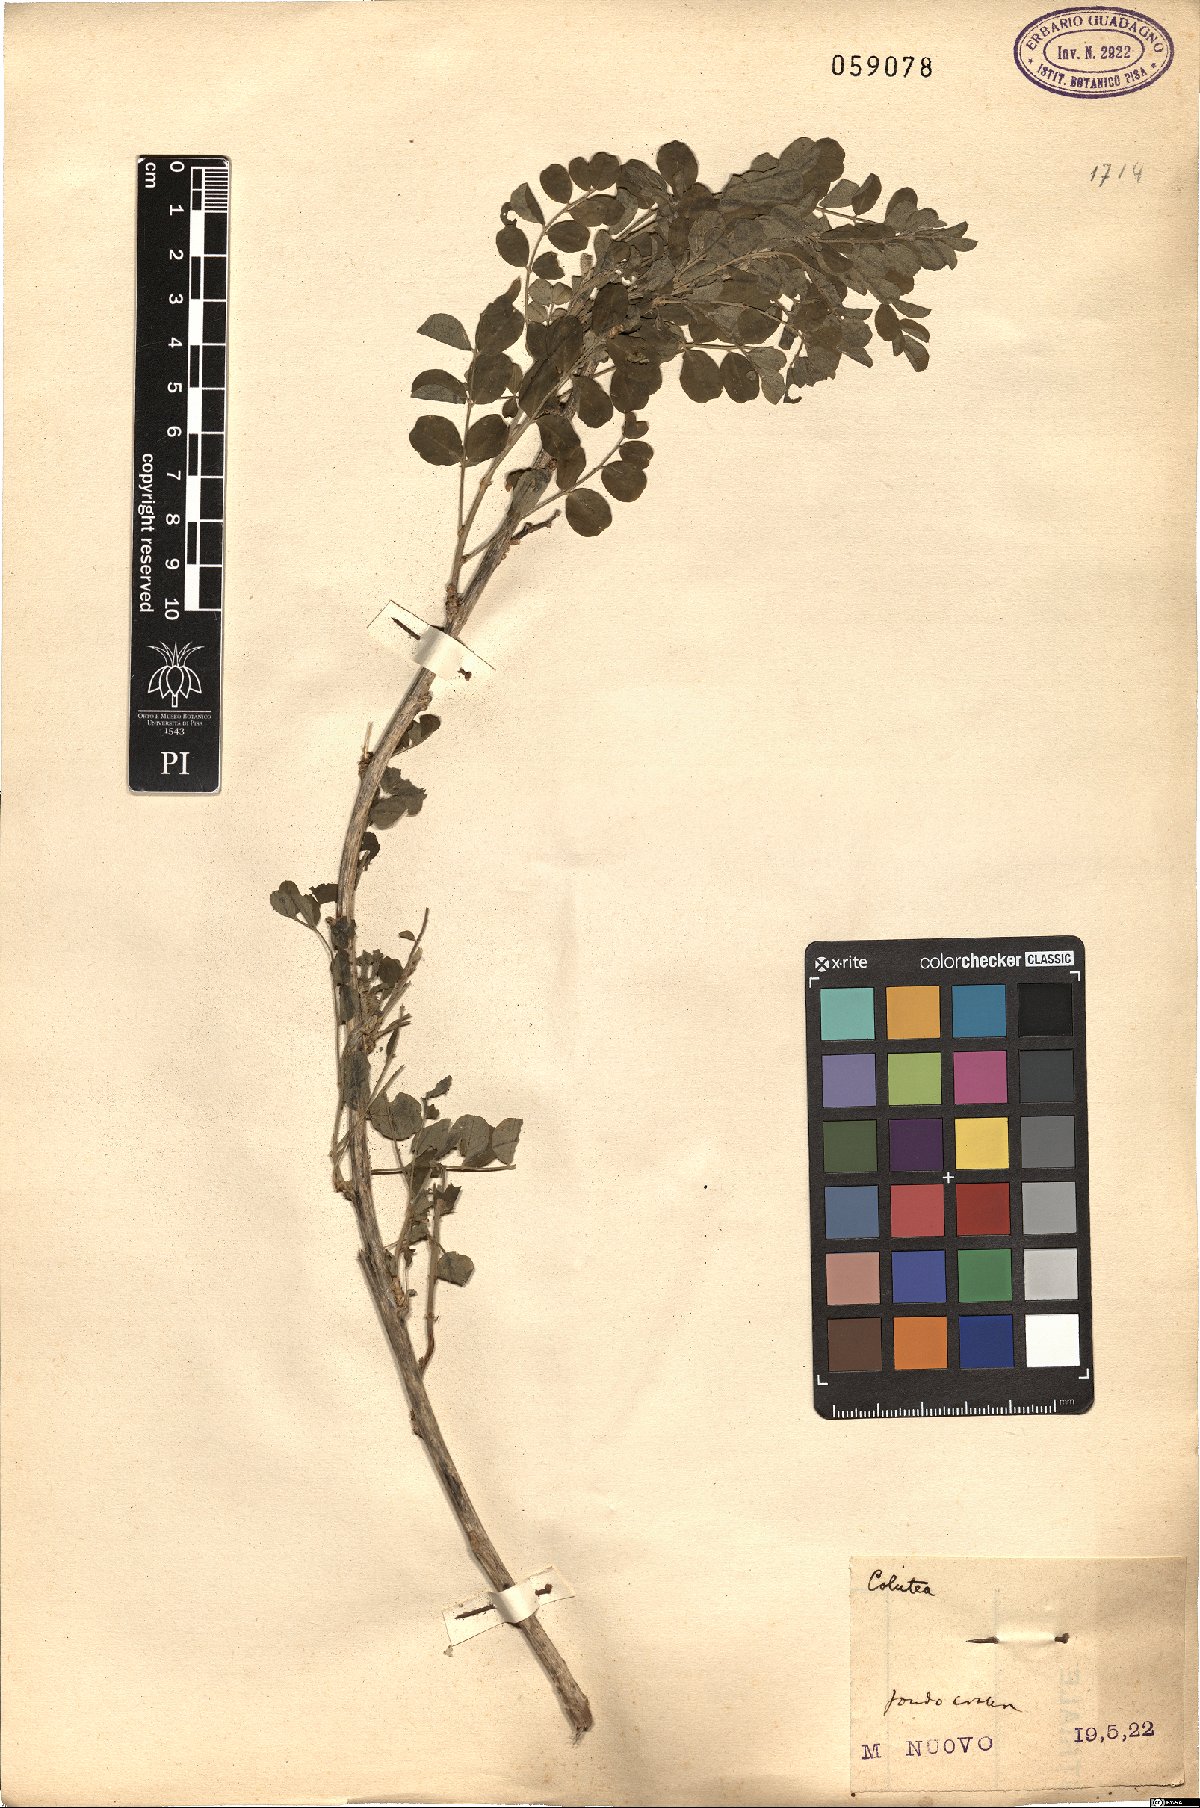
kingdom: Plantae
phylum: Tracheophyta
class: Magnoliopsida
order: Fabales
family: Fabaceae
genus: Colutea
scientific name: Colutea
